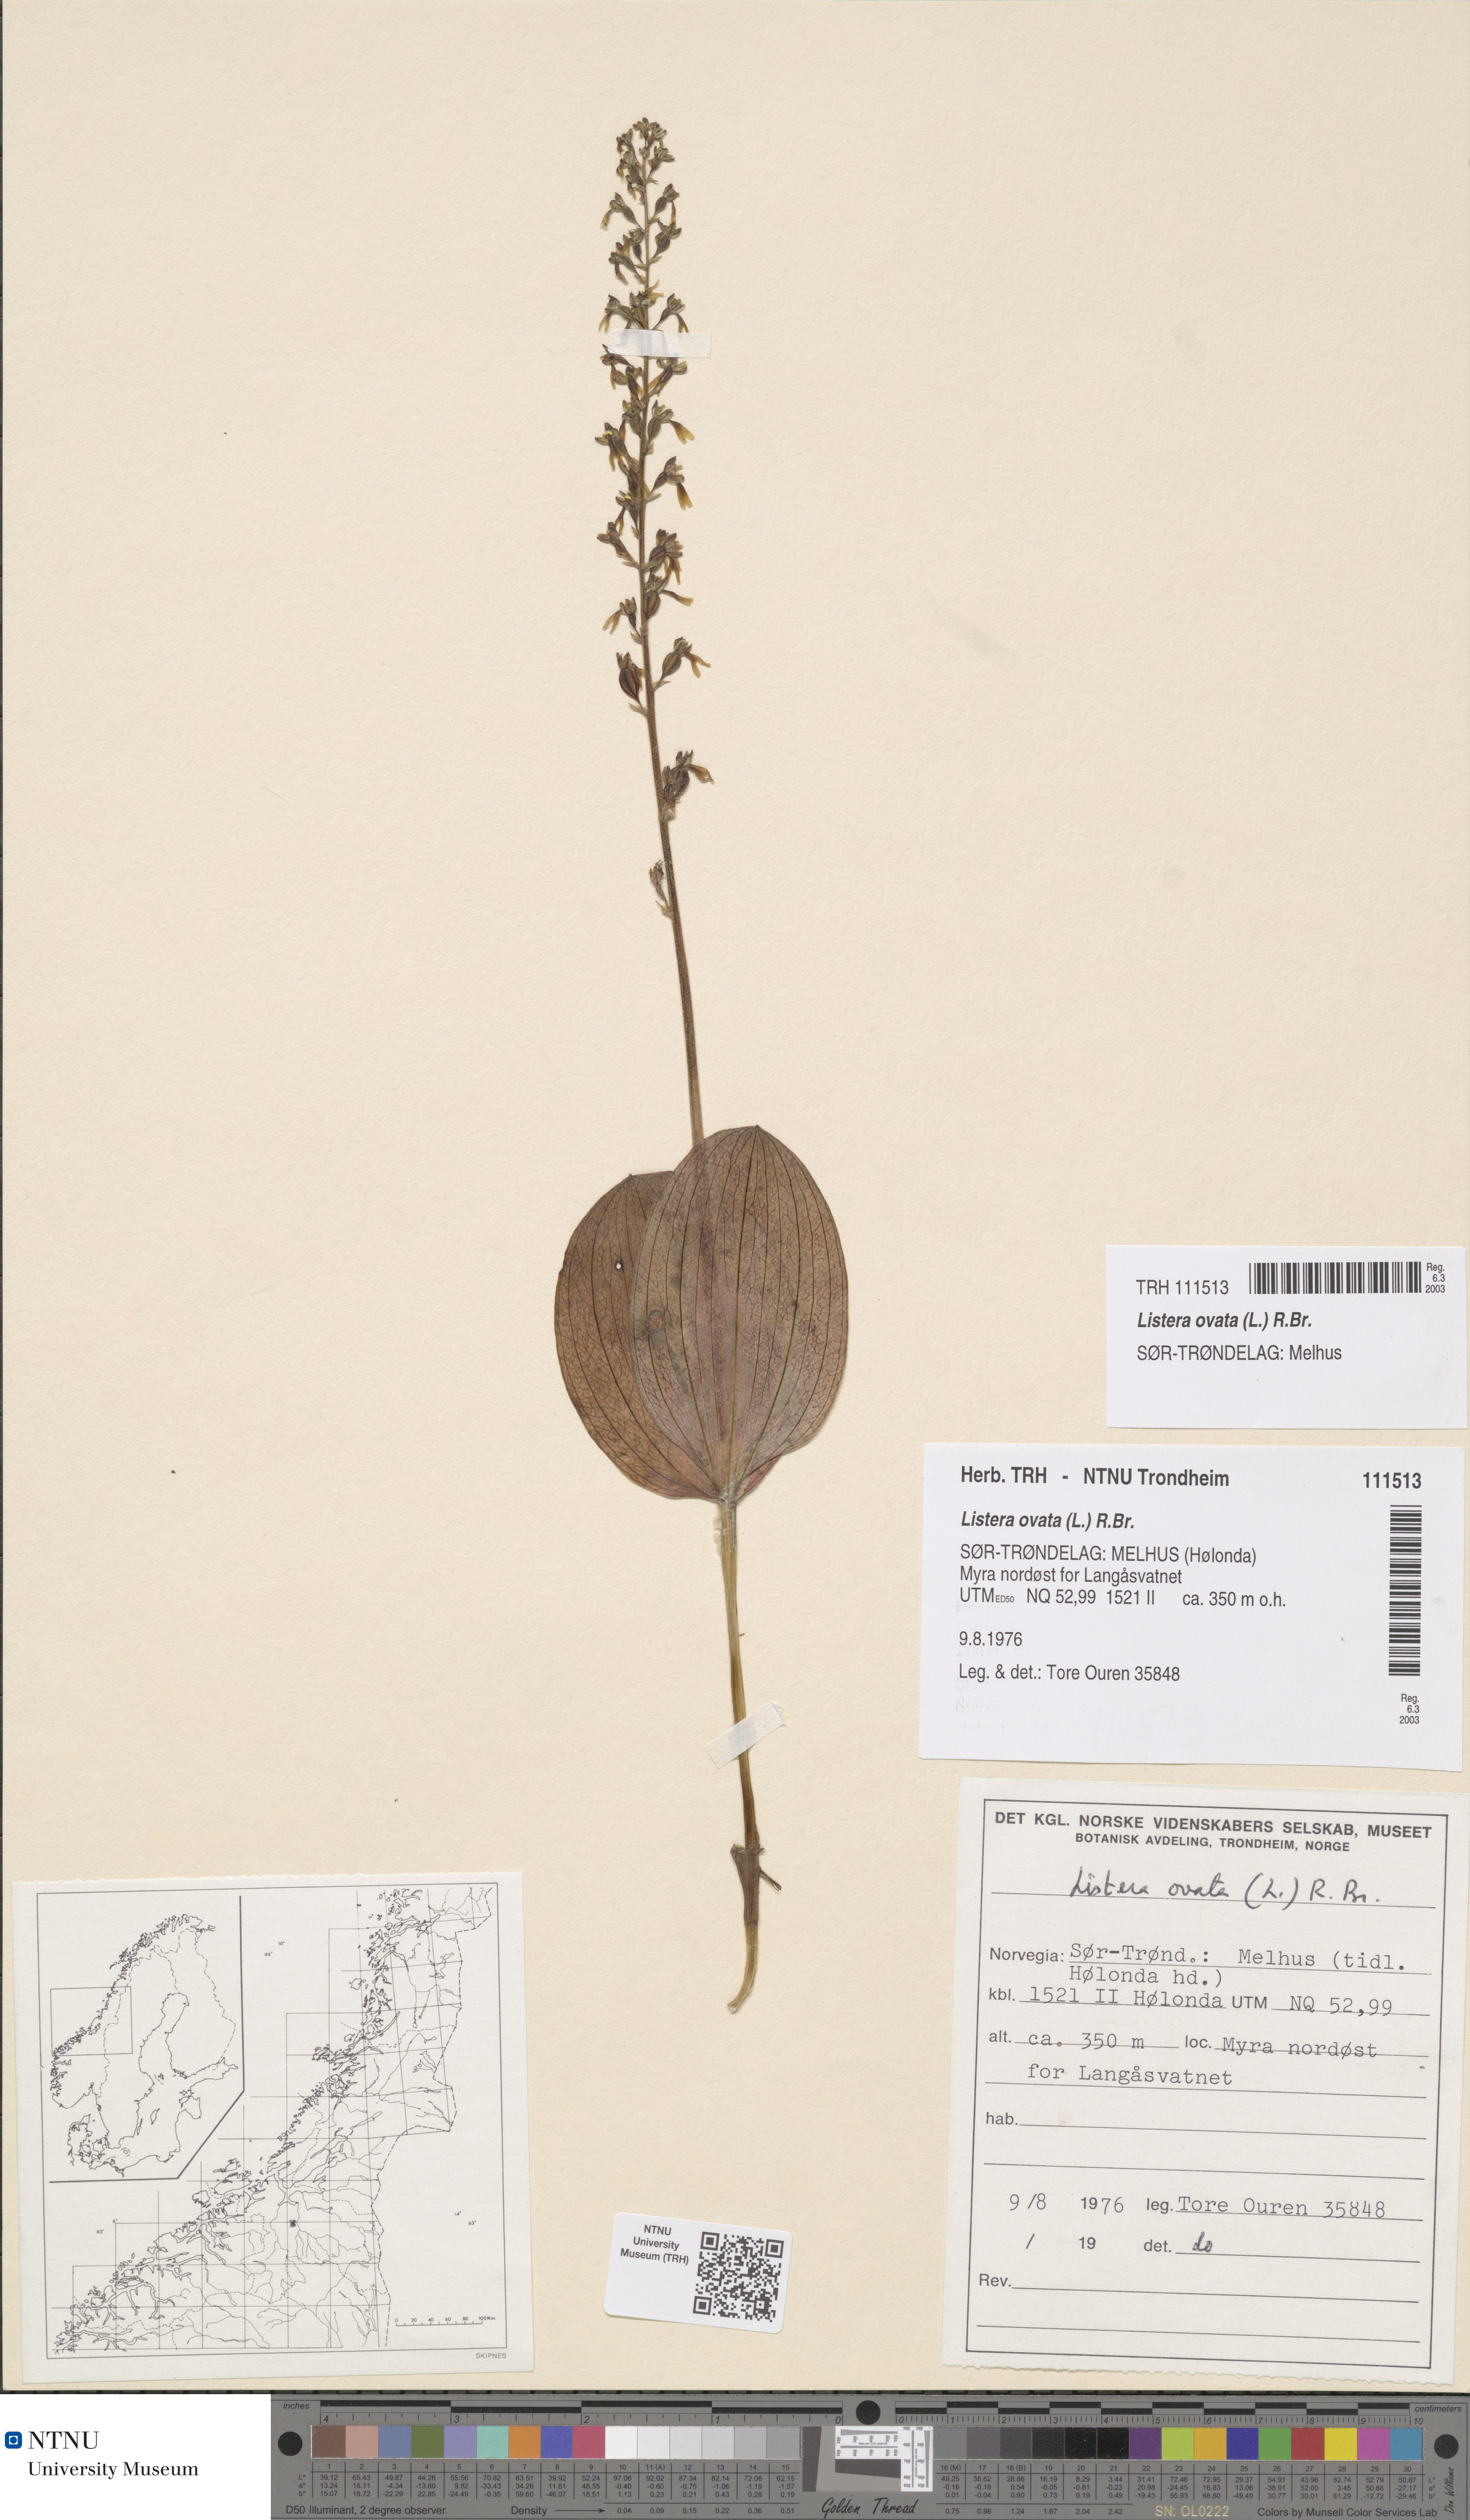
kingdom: Plantae
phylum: Tracheophyta
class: Liliopsida
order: Asparagales
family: Orchidaceae
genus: Neottia
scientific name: Neottia ovata
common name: Common twayblade
